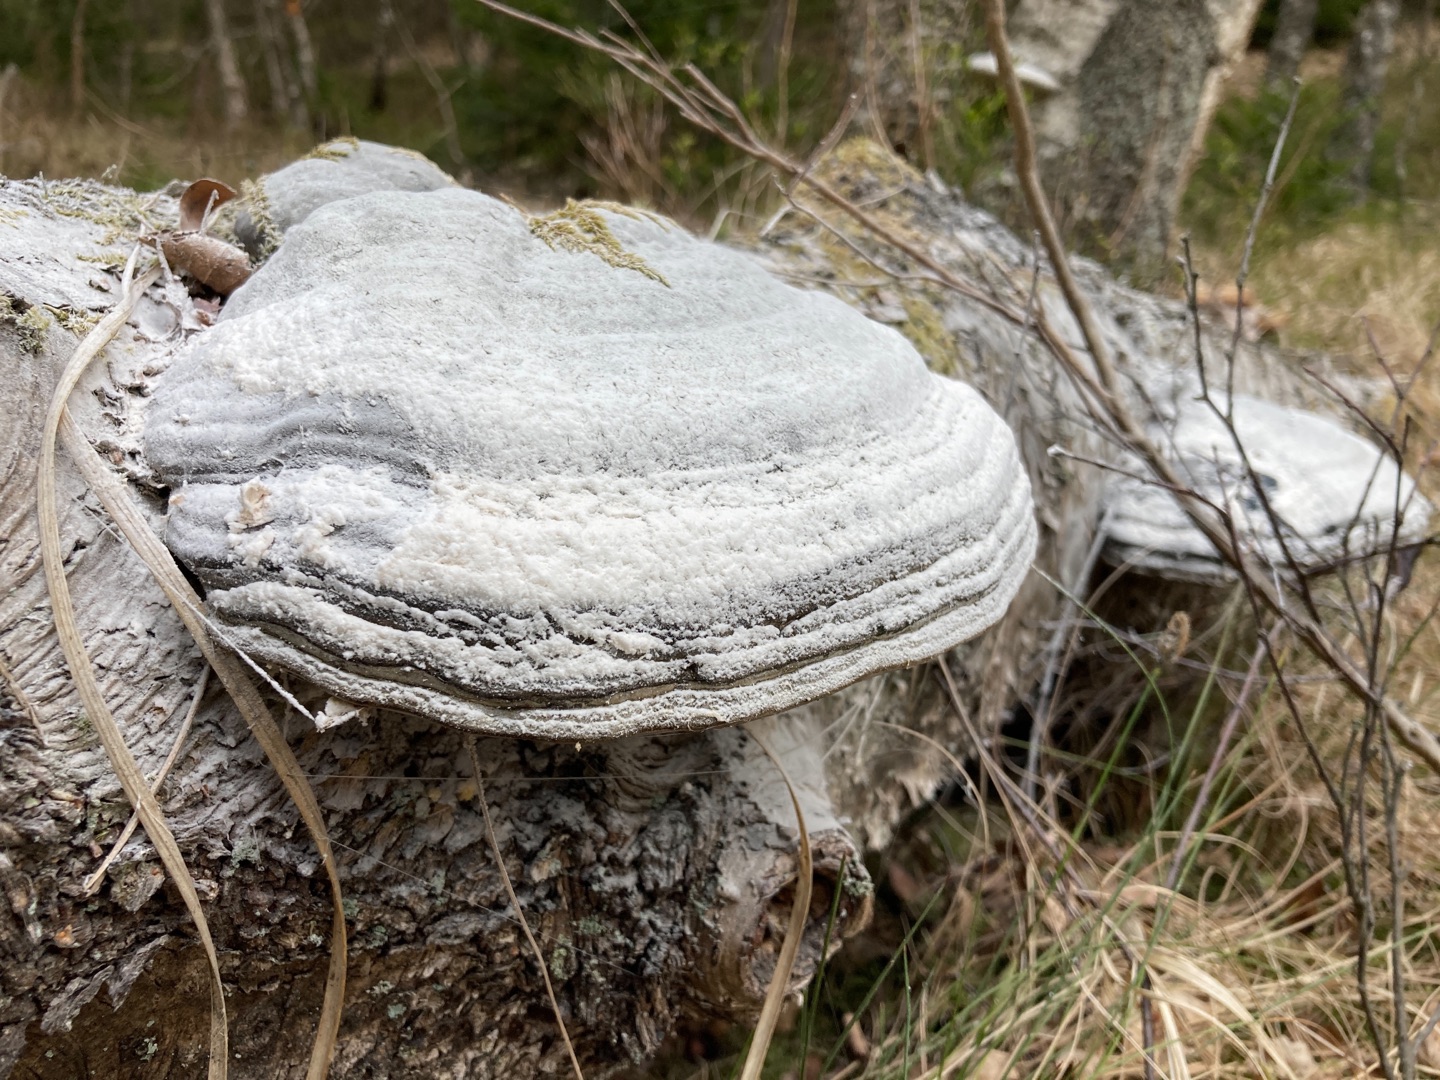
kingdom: Fungi
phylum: Basidiomycota
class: Agaricomycetes
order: Polyporales
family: Polyporaceae
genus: Fomes
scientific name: Fomes
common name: Tøndersvamp
